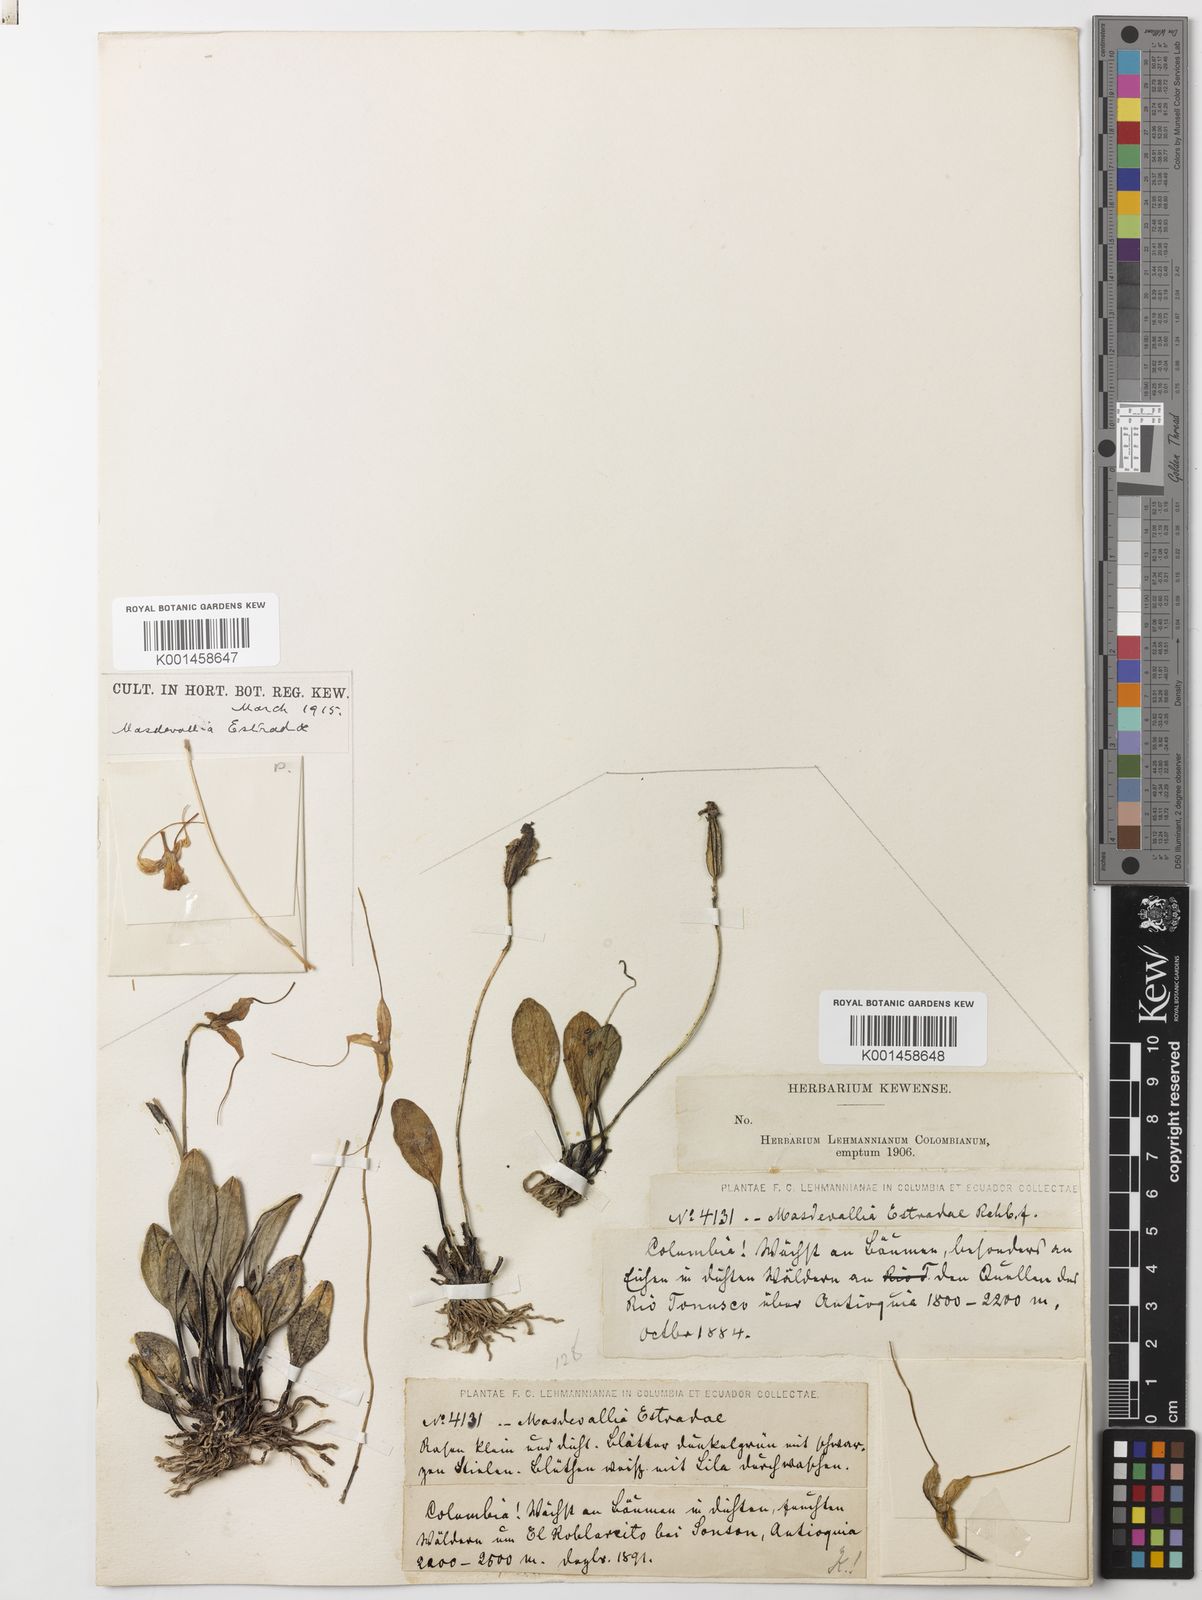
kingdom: Plantae
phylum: Tracheophyta
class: Liliopsida
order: Asparagales
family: Orchidaceae
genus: Masdevallia
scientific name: Masdevallia estradae
